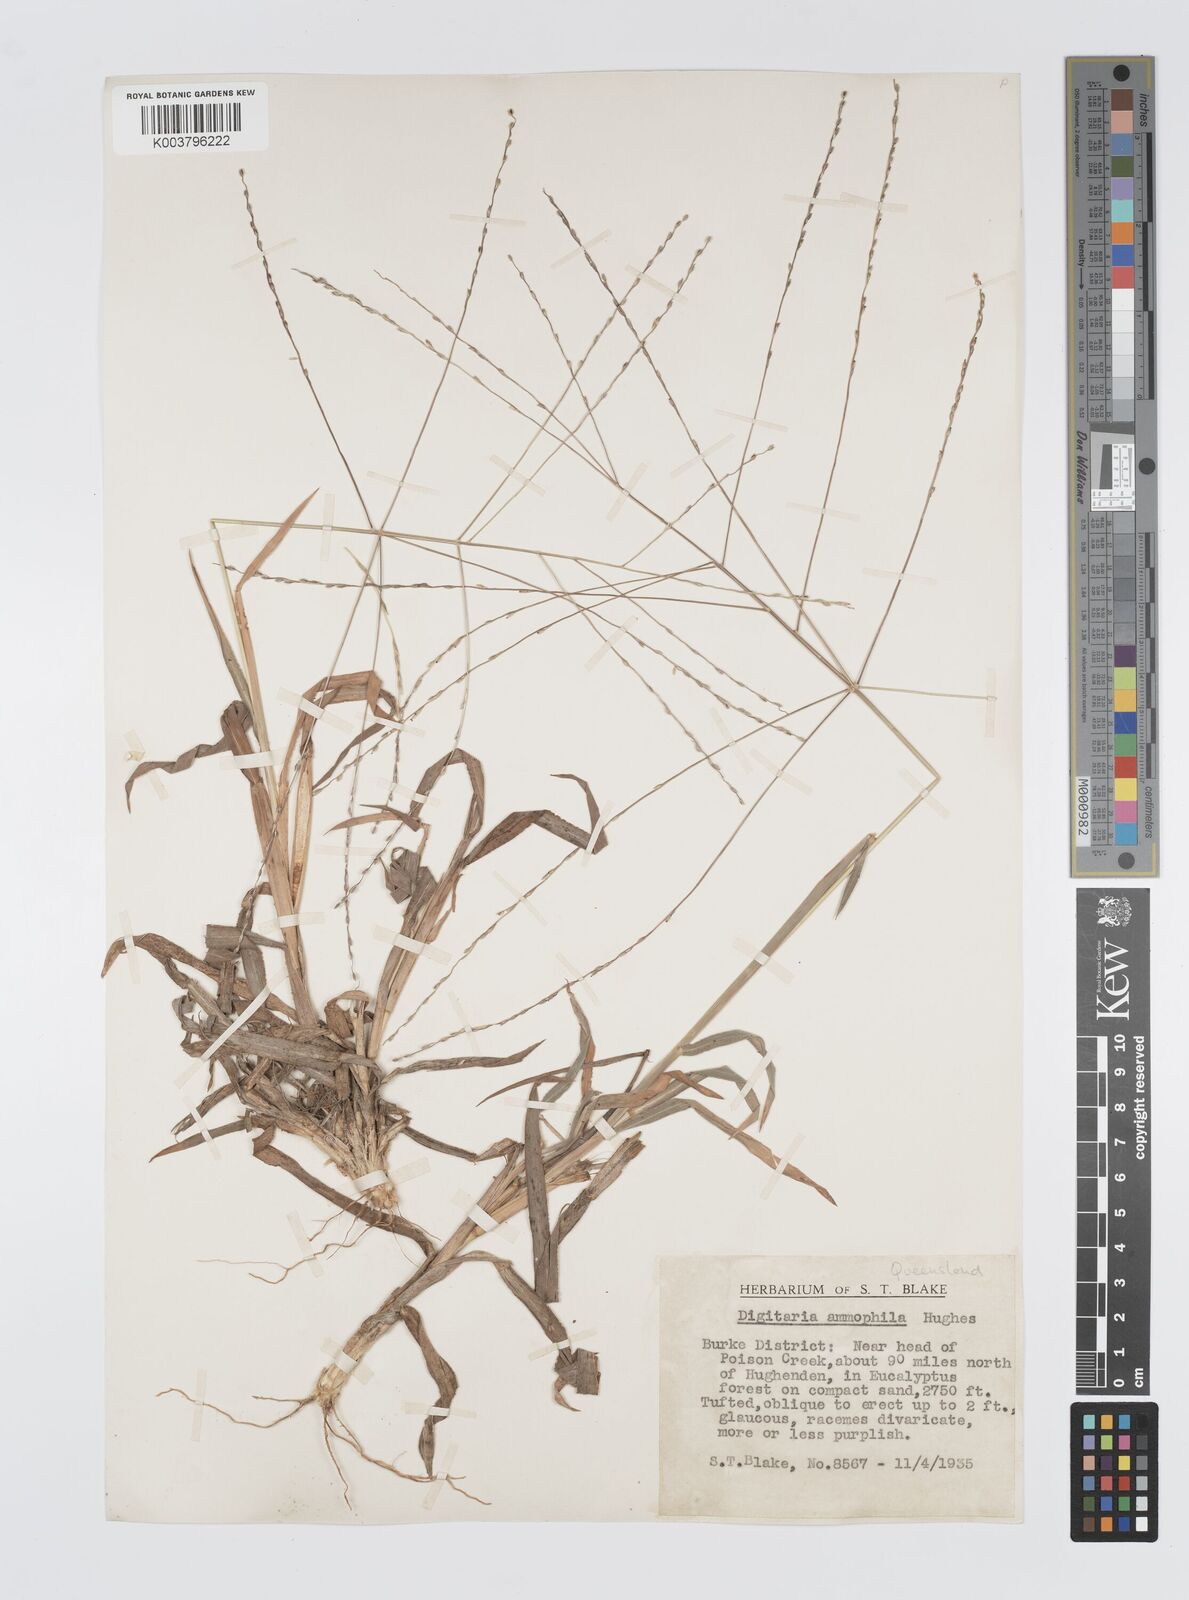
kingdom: Plantae
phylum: Tracheophyta
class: Liliopsida
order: Poales
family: Poaceae
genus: Digitaria
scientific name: Digitaria ammophila
